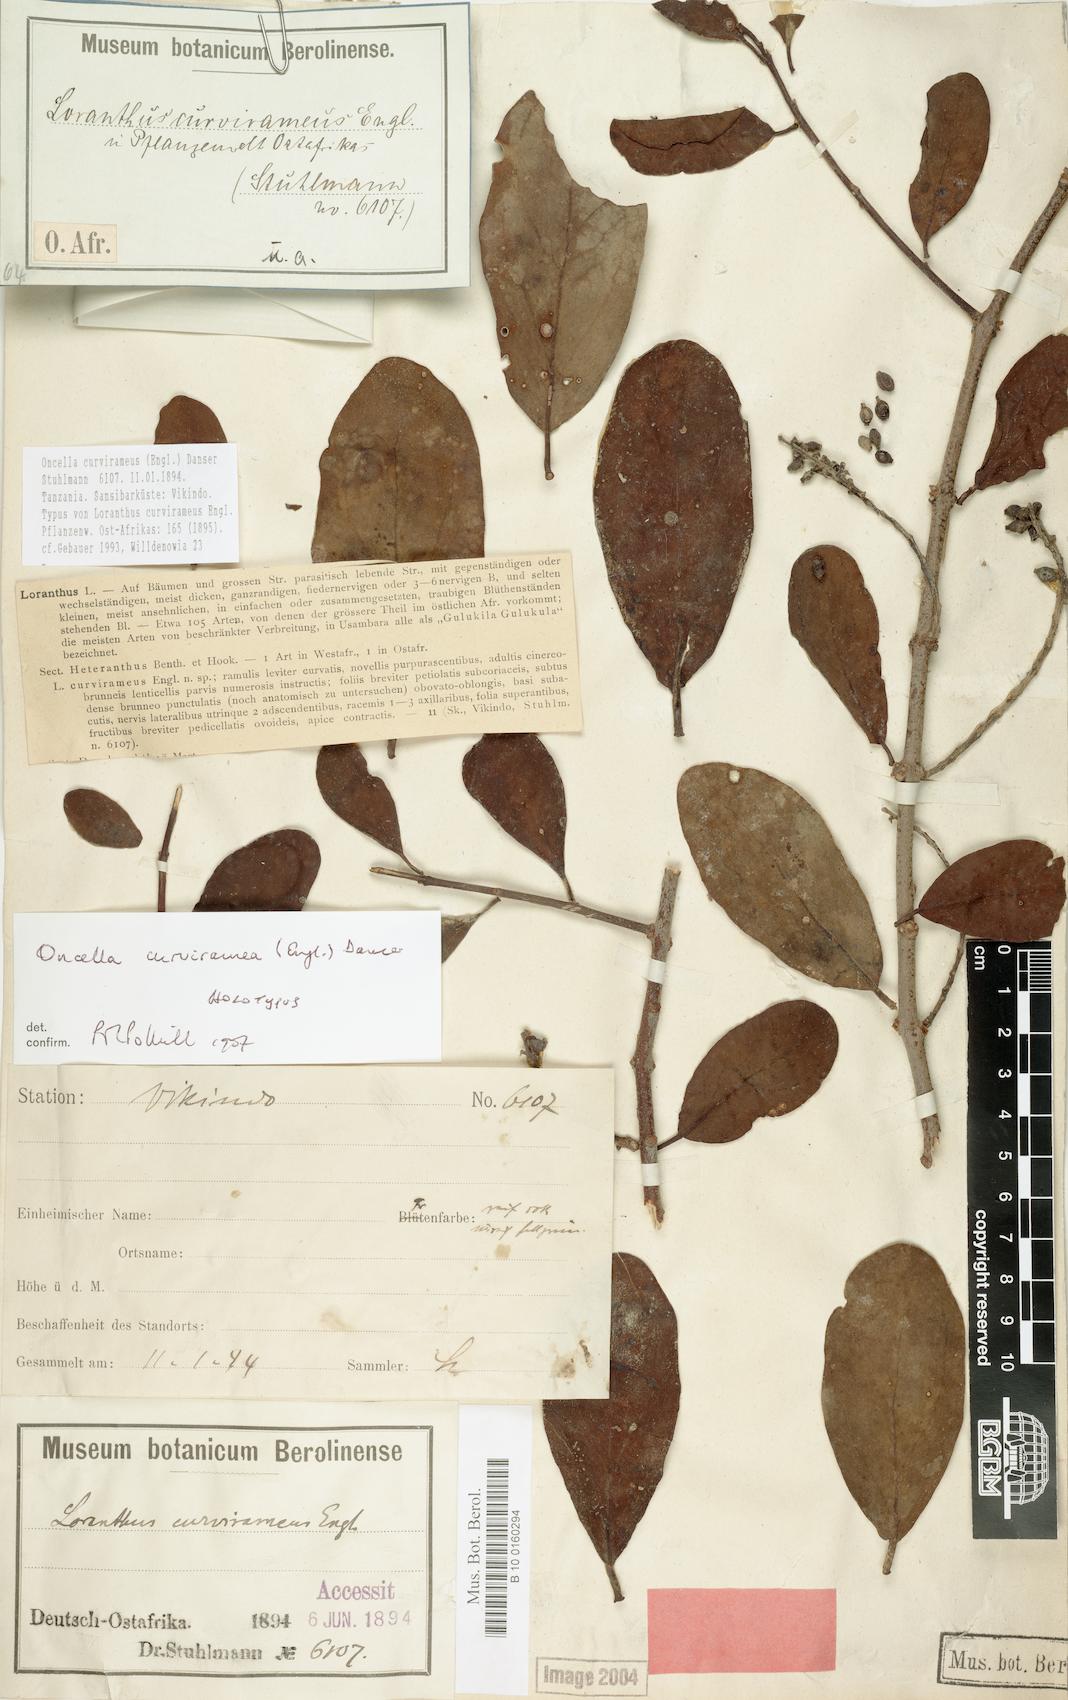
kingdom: Plantae
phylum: Tracheophyta
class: Magnoliopsida
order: Santalales
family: Loranthaceae
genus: Oncella
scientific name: Oncella curviramea
